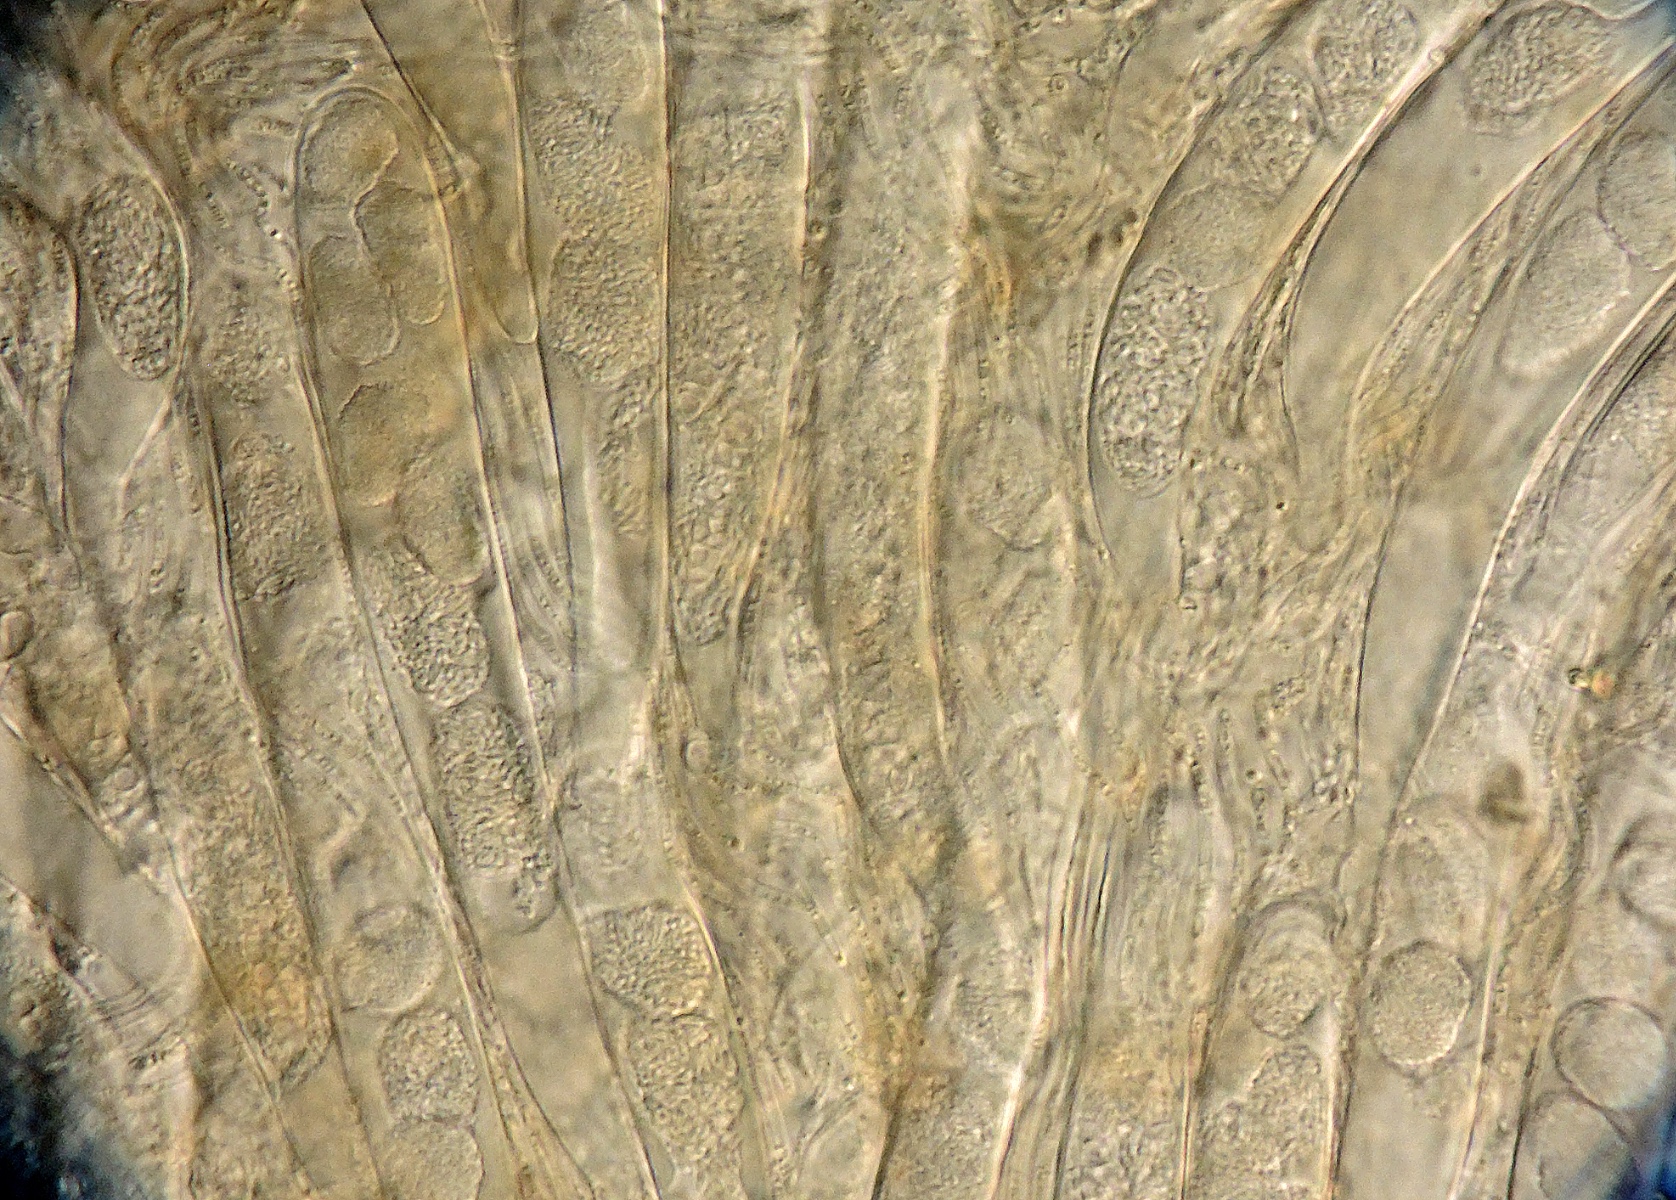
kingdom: Fungi
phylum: Ascomycota
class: Leotiomycetes
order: Leotiales
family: Tympanidaceae
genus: Vexillomyces
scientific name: Vexillomyces xylophilus
